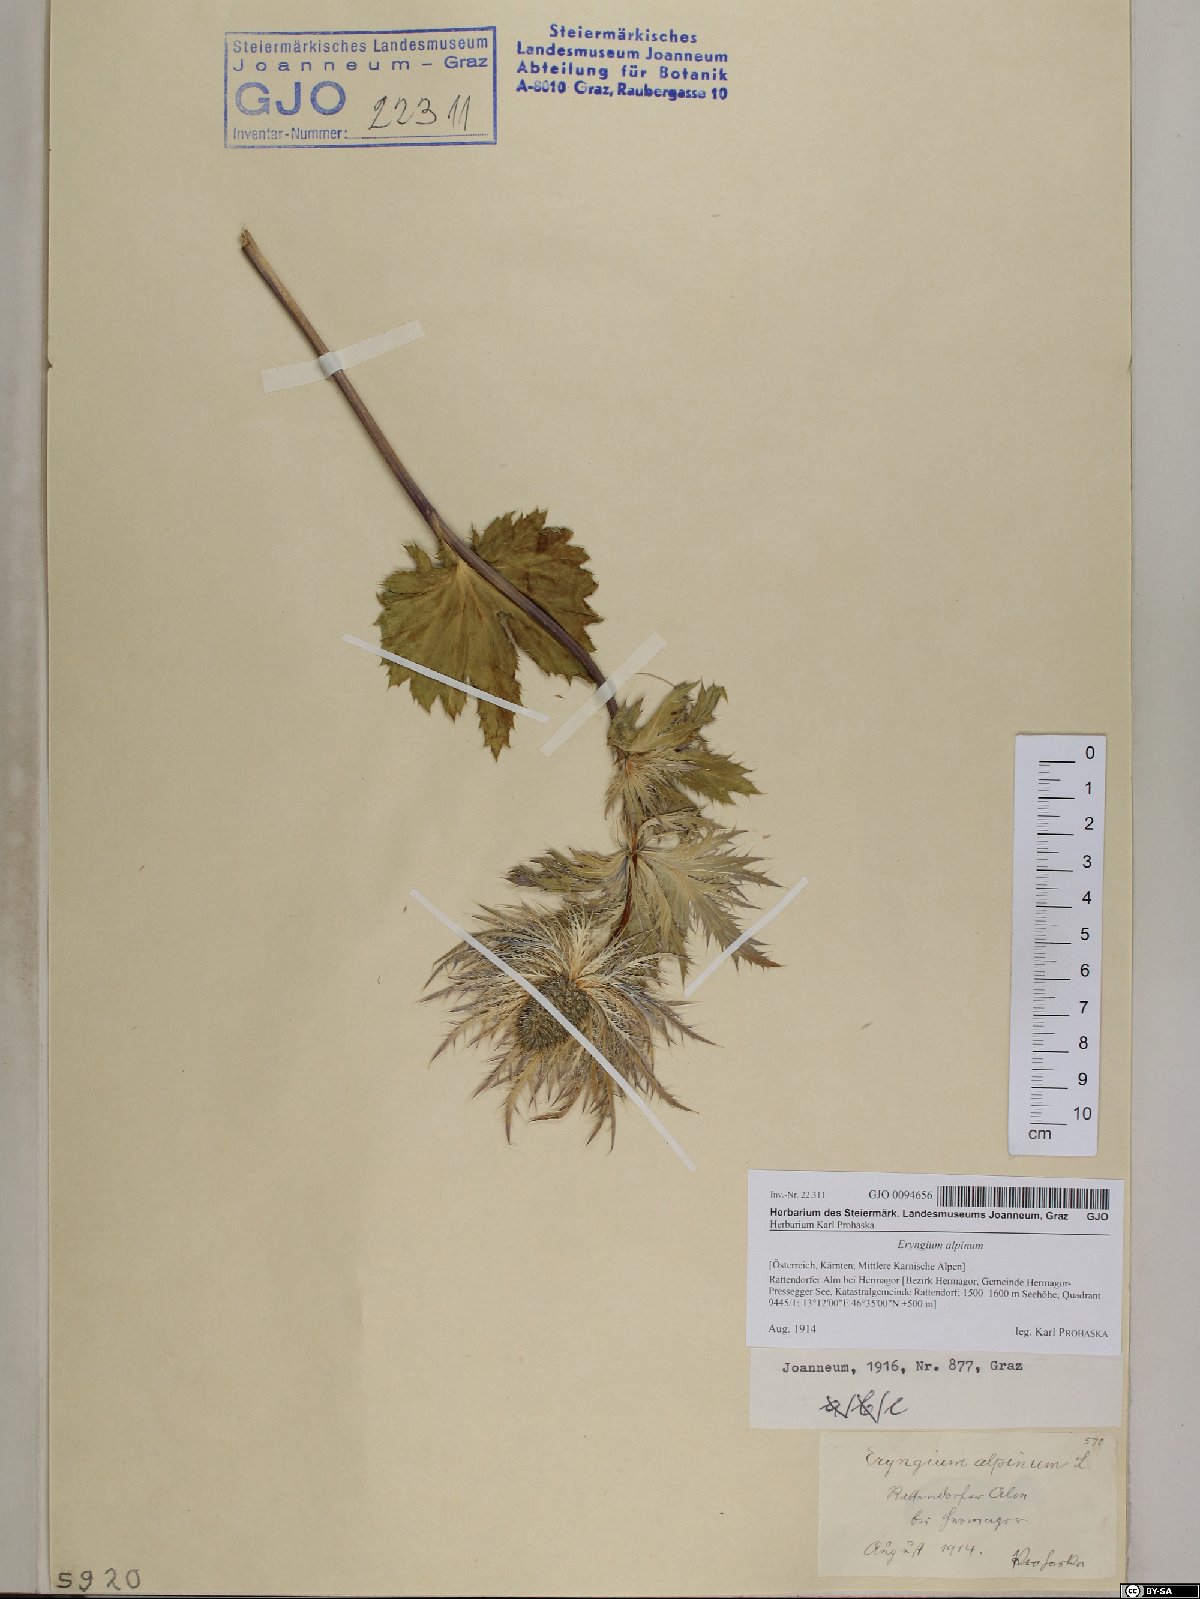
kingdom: Plantae
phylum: Tracheophyta
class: Magnoliopsida
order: Apiales
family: Apiaceae
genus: Eryngium
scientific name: Eryngium alpinum
